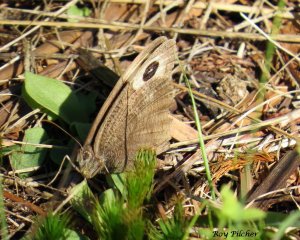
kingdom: Animalia
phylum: Arthropoda
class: Insecta
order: Lepidoptera
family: Nymphalidae
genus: Cercyonis
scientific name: Cercyonis pegala
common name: Common Wood-Nymph
